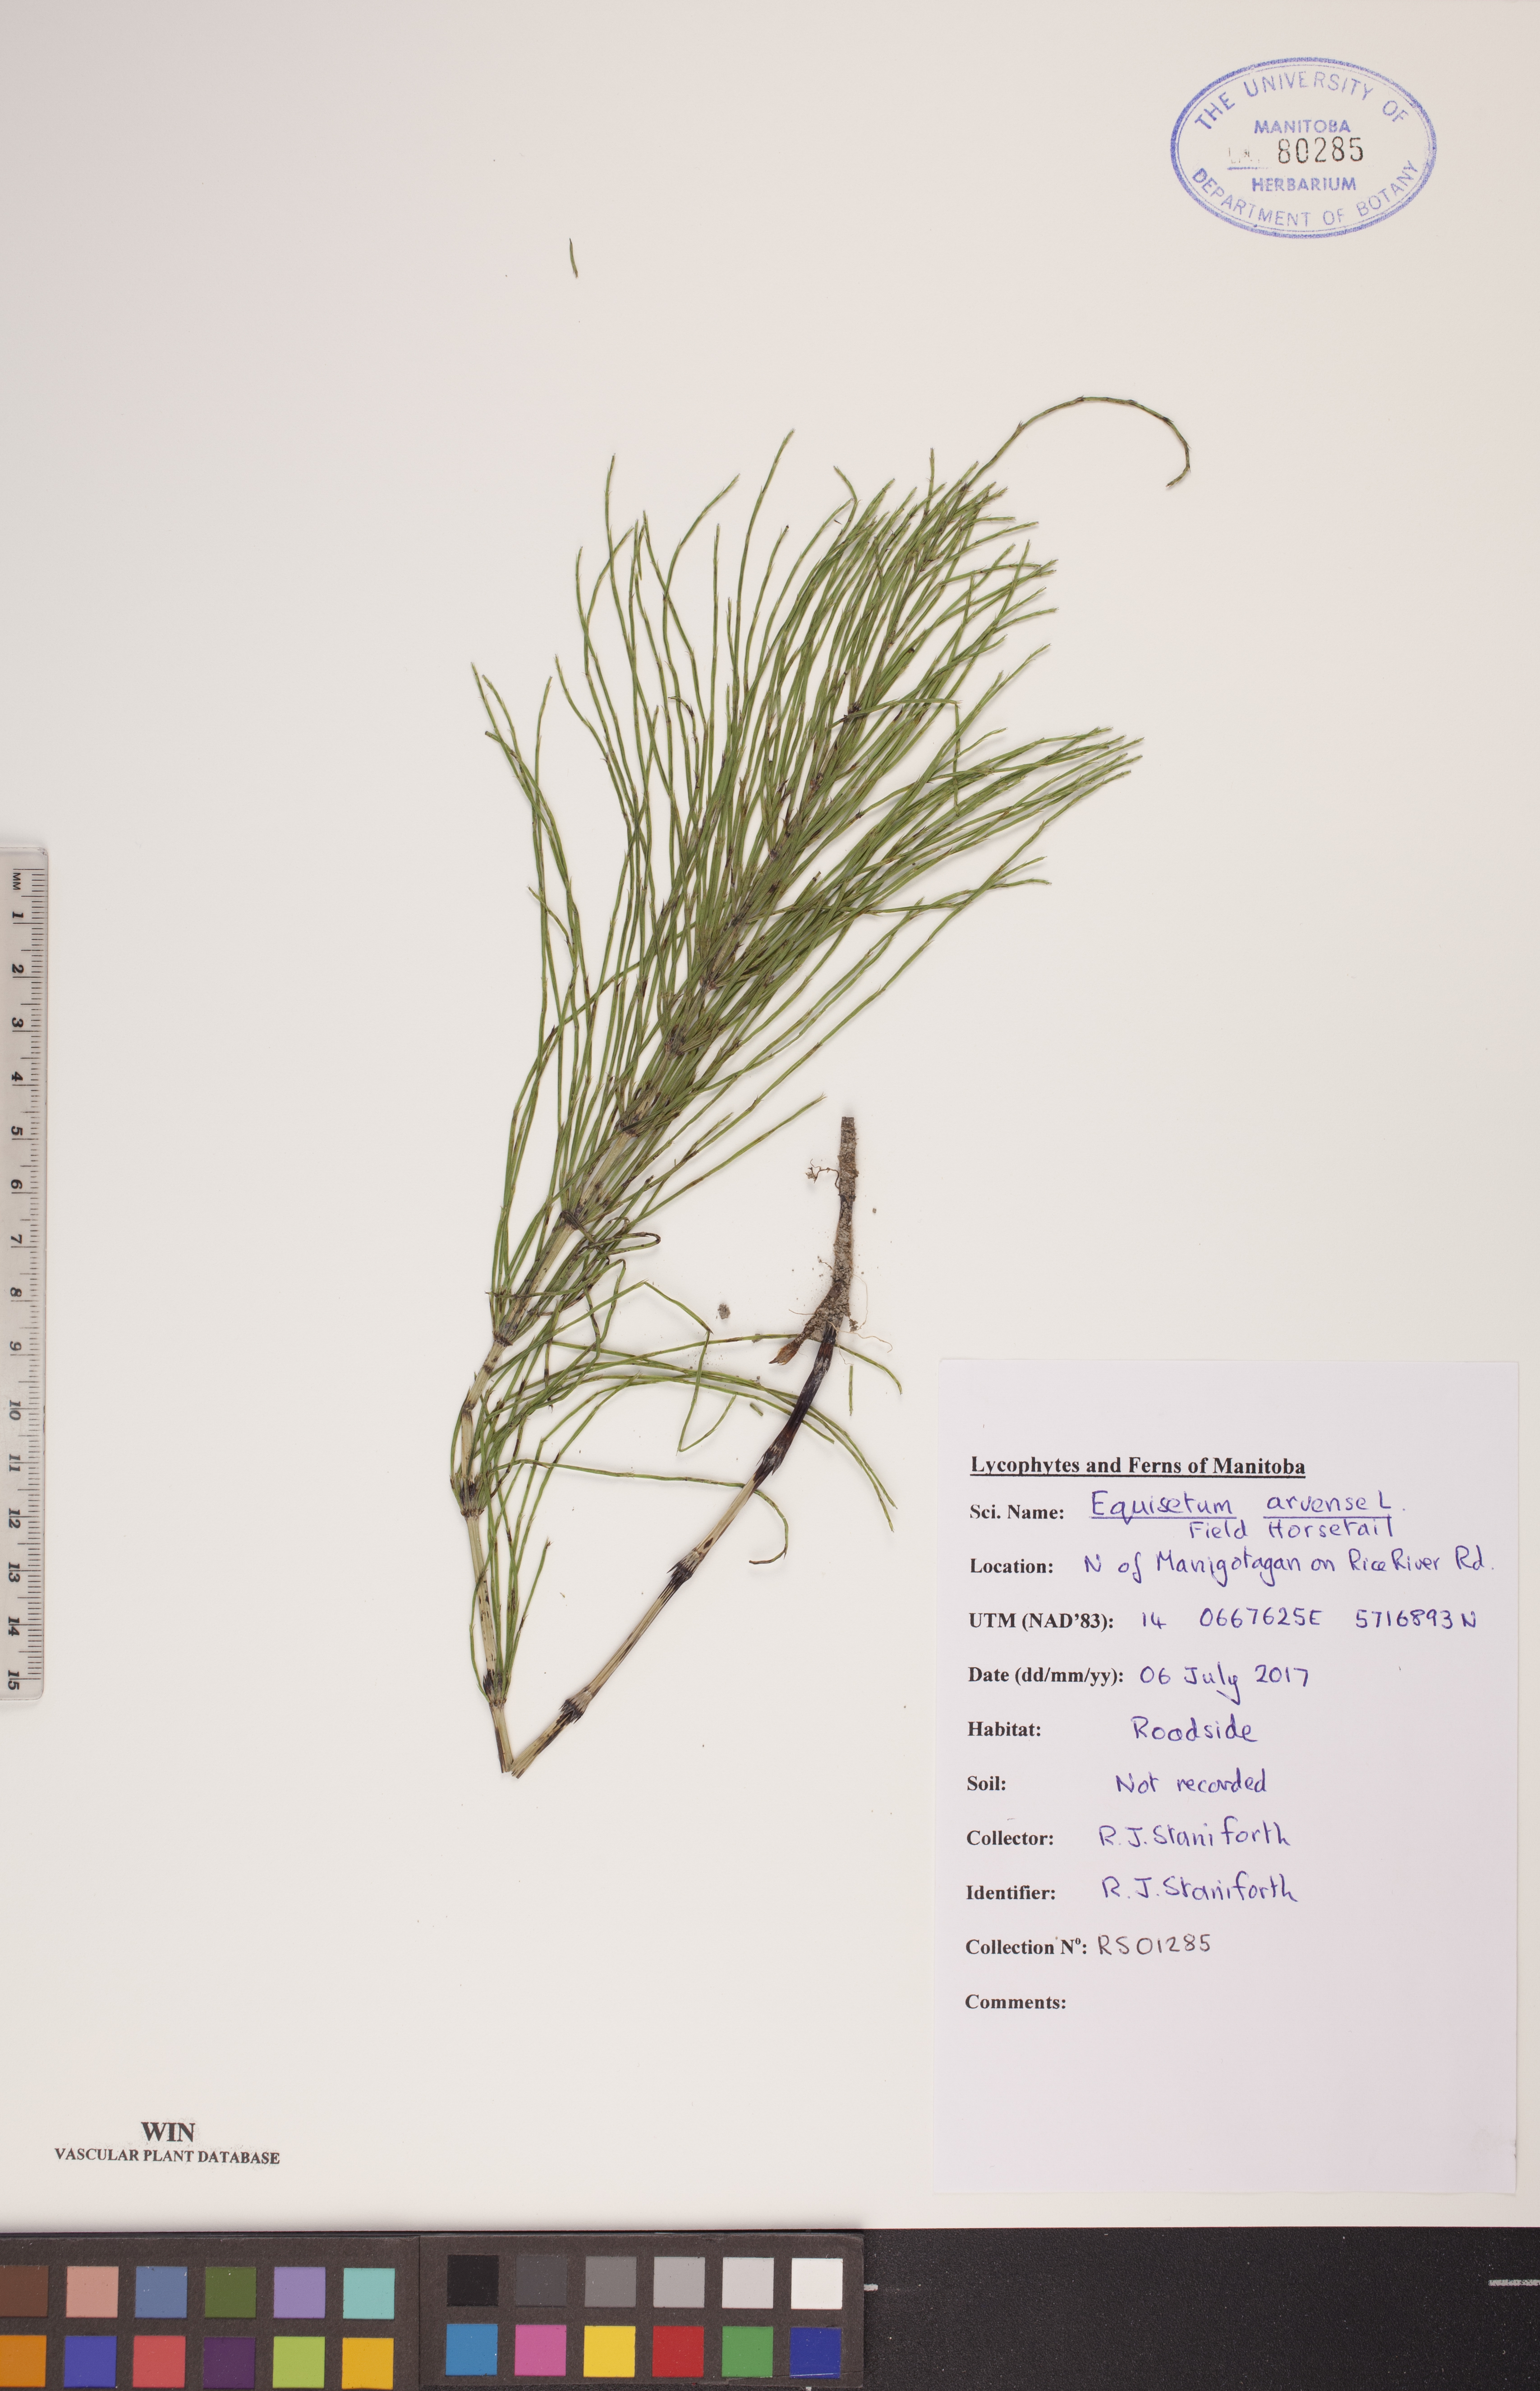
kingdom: Plantae
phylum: Tracheophyta
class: Polypodiopsida
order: Equisetales
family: Equisetaceae
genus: Equisetum
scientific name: Equisetum arvense
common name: Field horsetail
